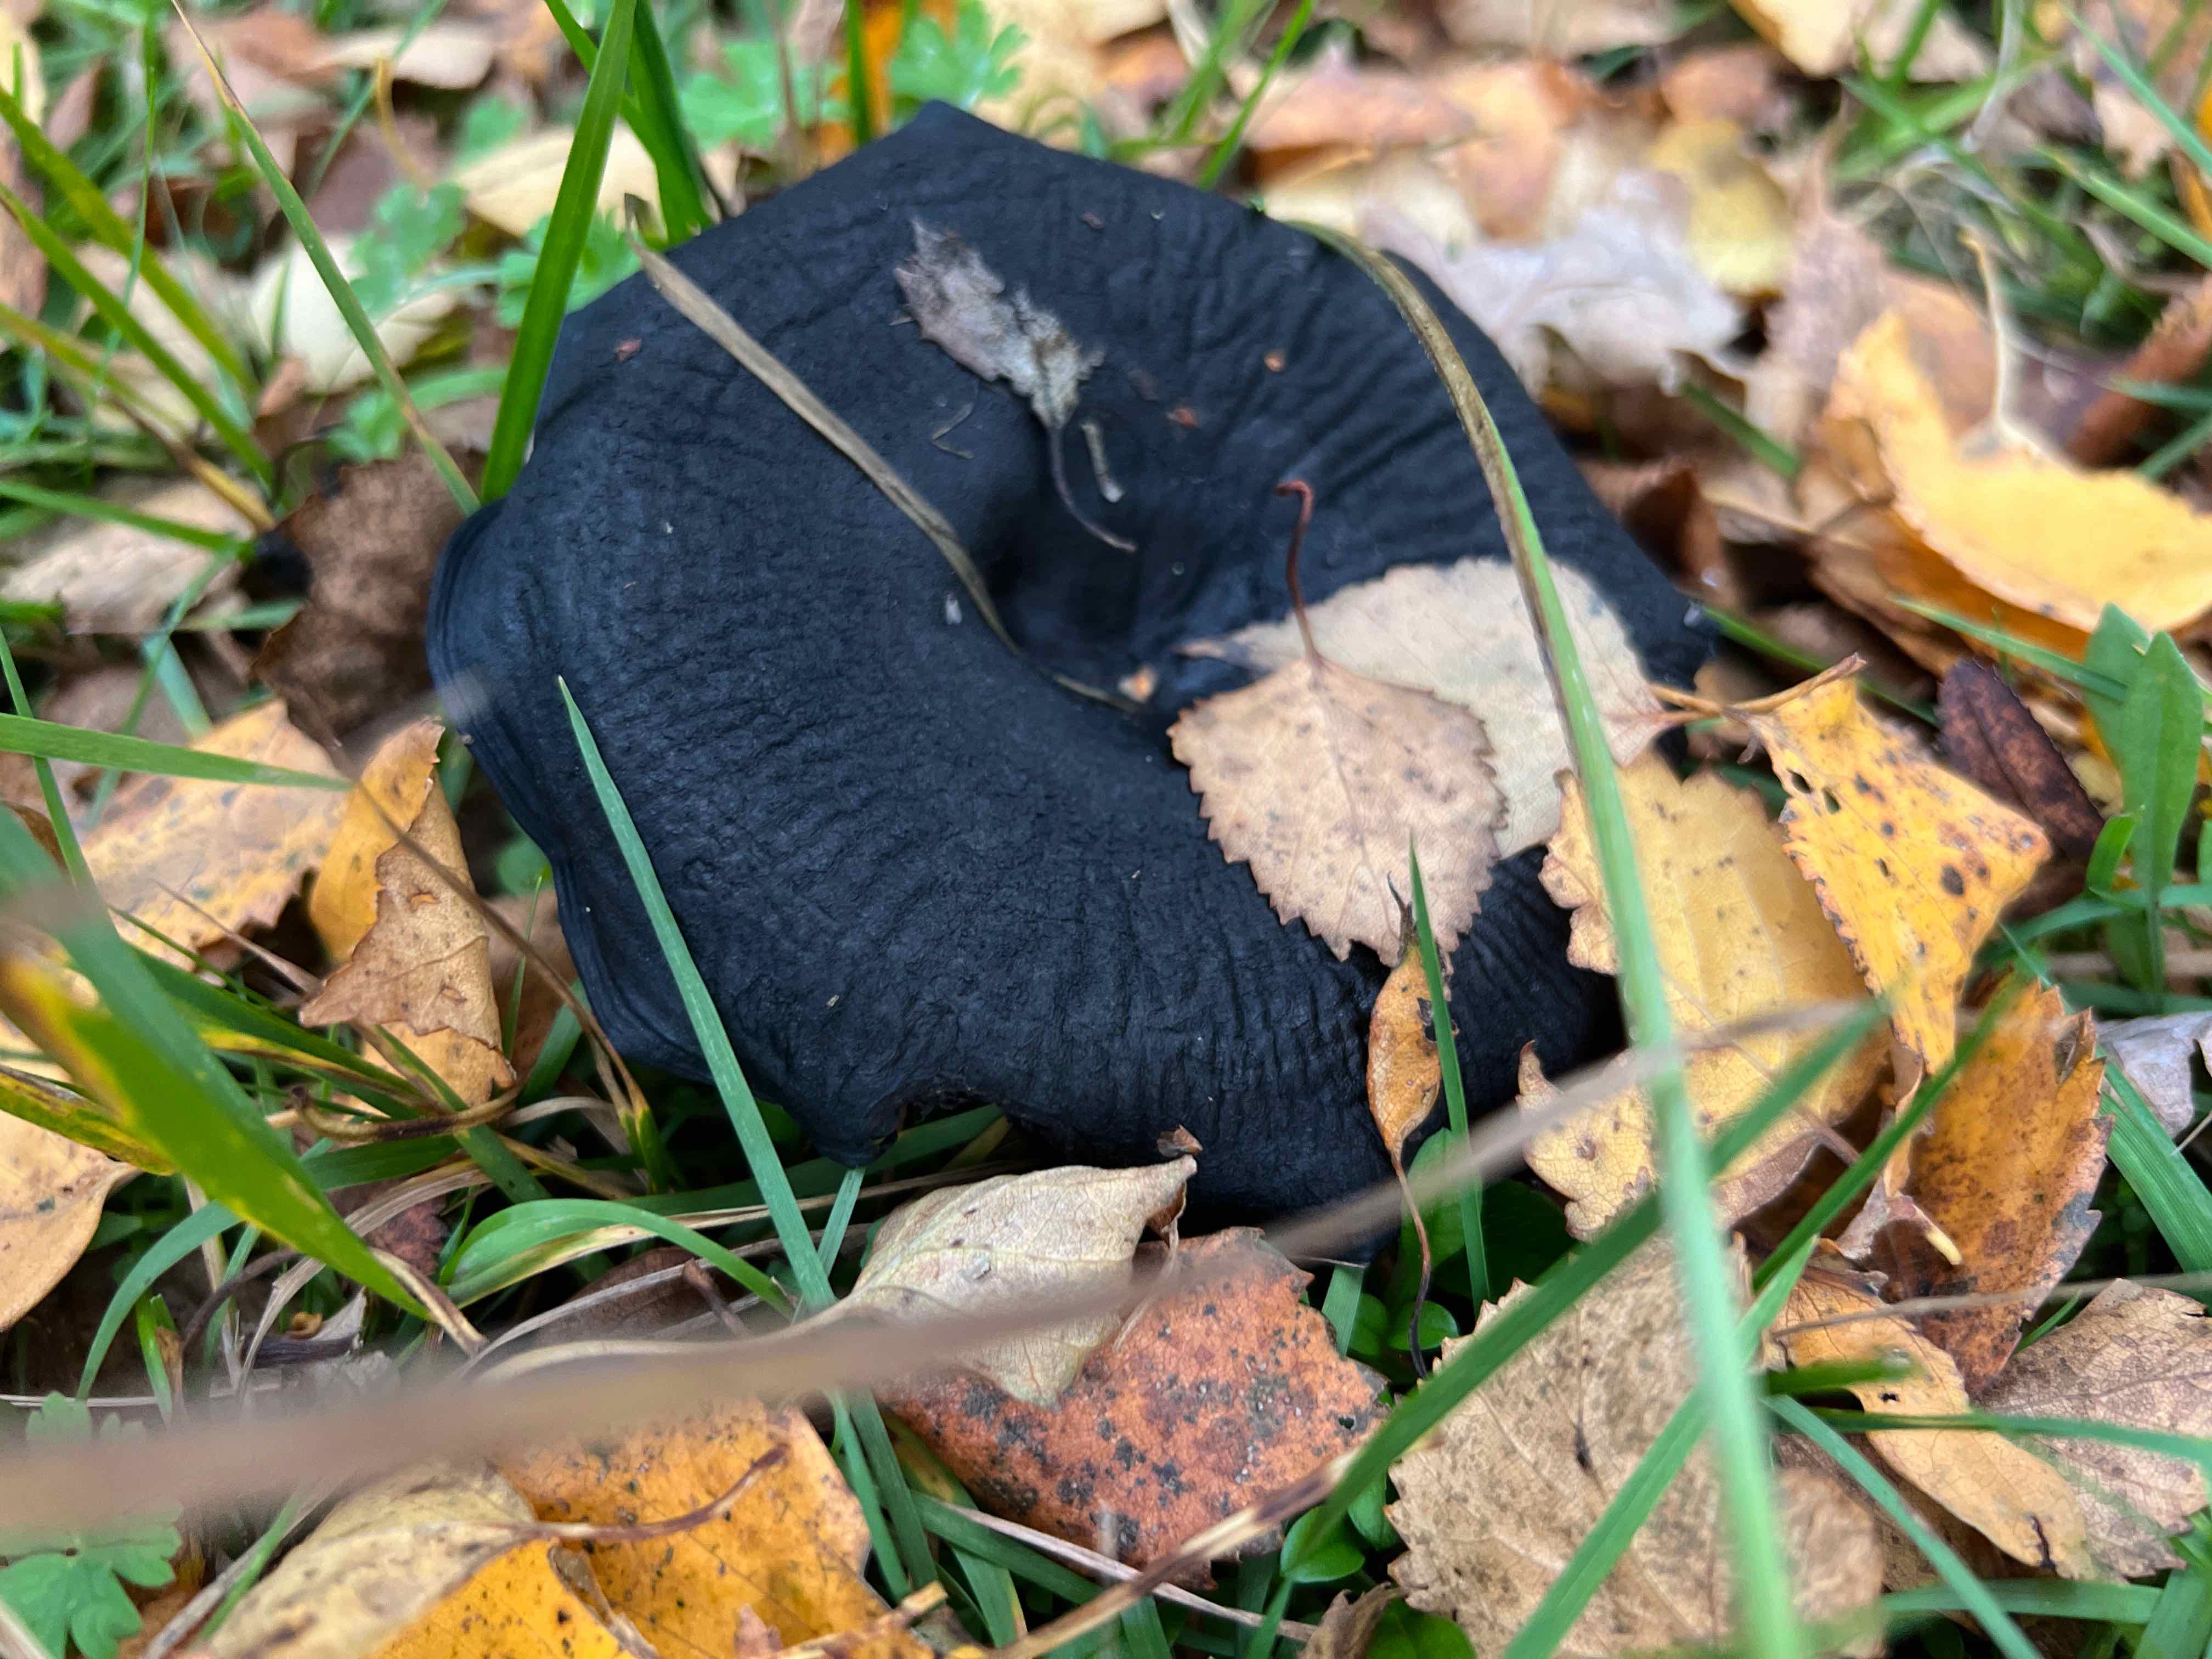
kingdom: Fungi
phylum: Basidiomycota
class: Agaricomycetes
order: Agaricales
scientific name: Agaricales
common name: champignonordenen
